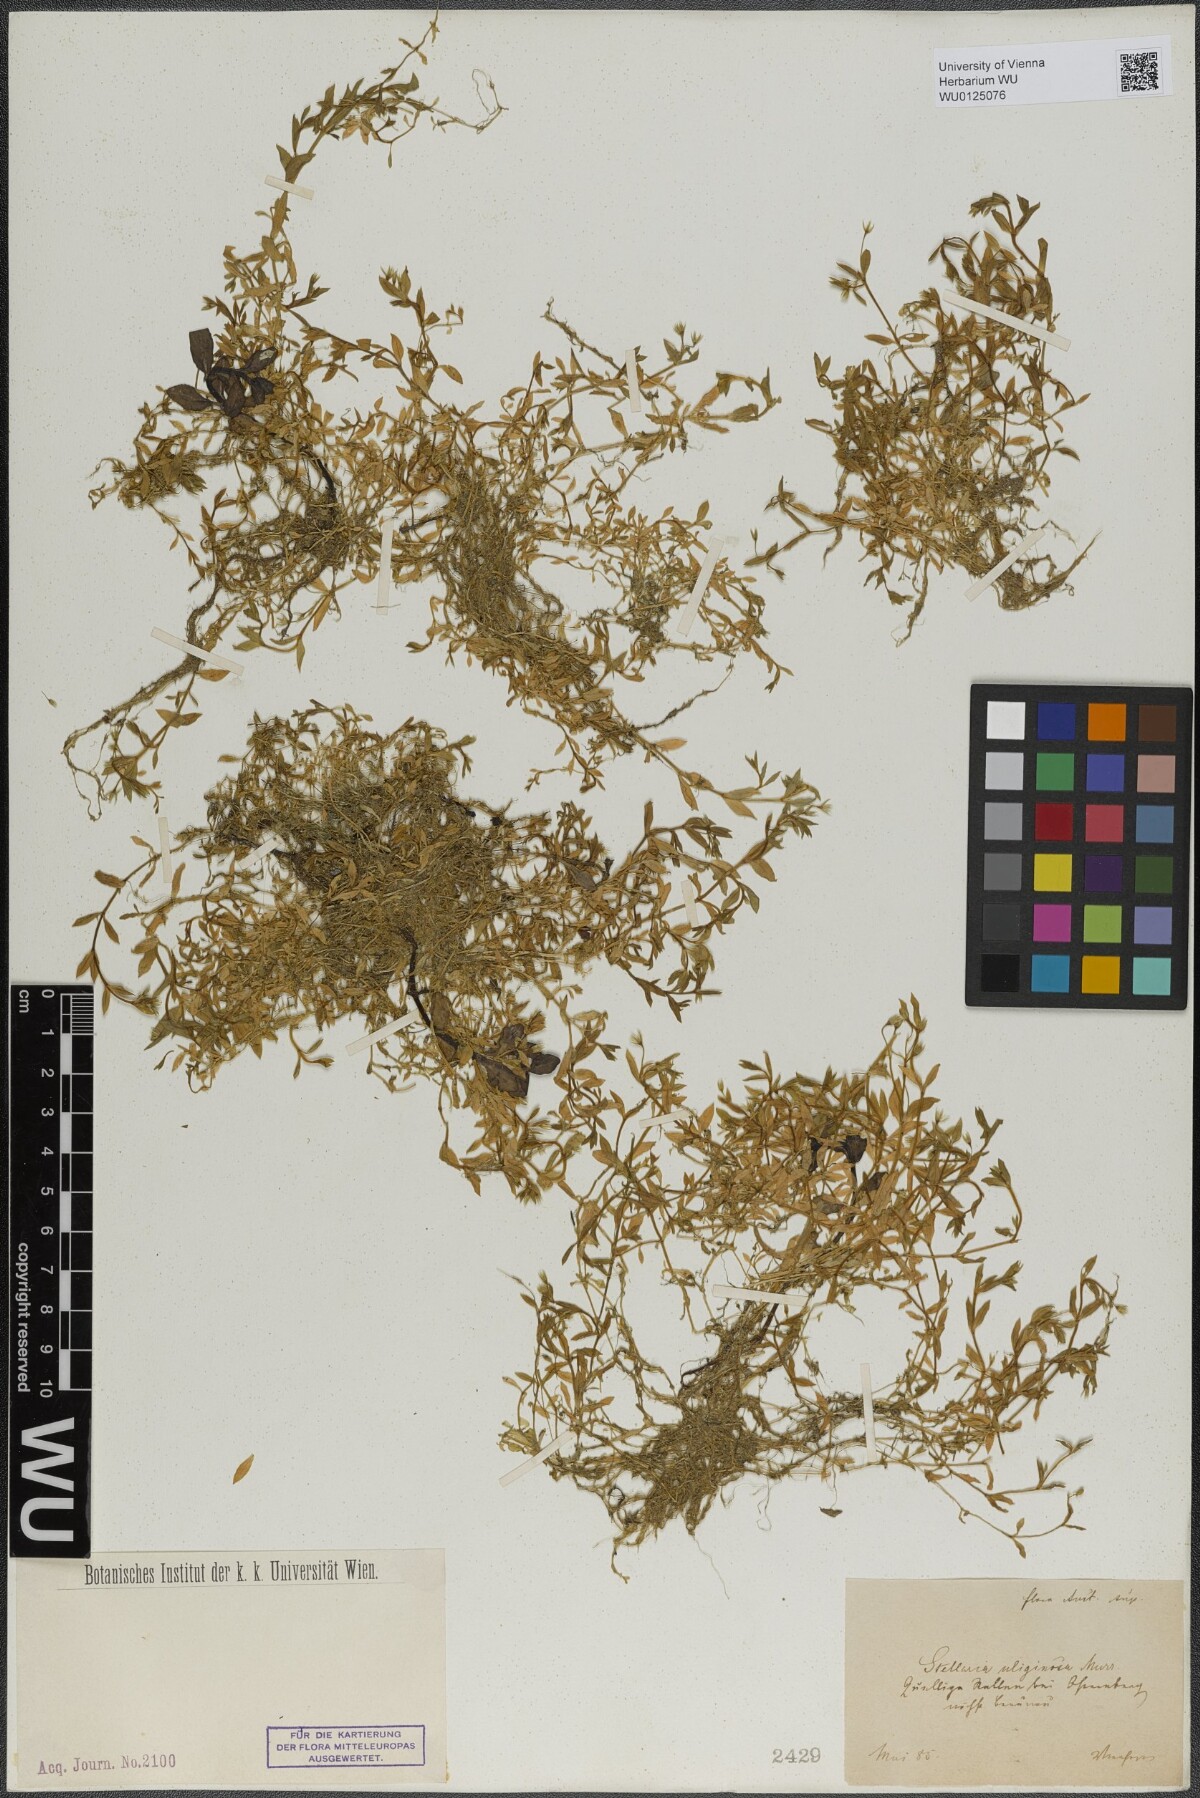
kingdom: Plantae
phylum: Tracheophyta
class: Magnoliopsida
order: Caryophyllales
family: Caryophyllaceae
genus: Stellaria
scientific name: Stellaria alsine
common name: Bog stitchwort
